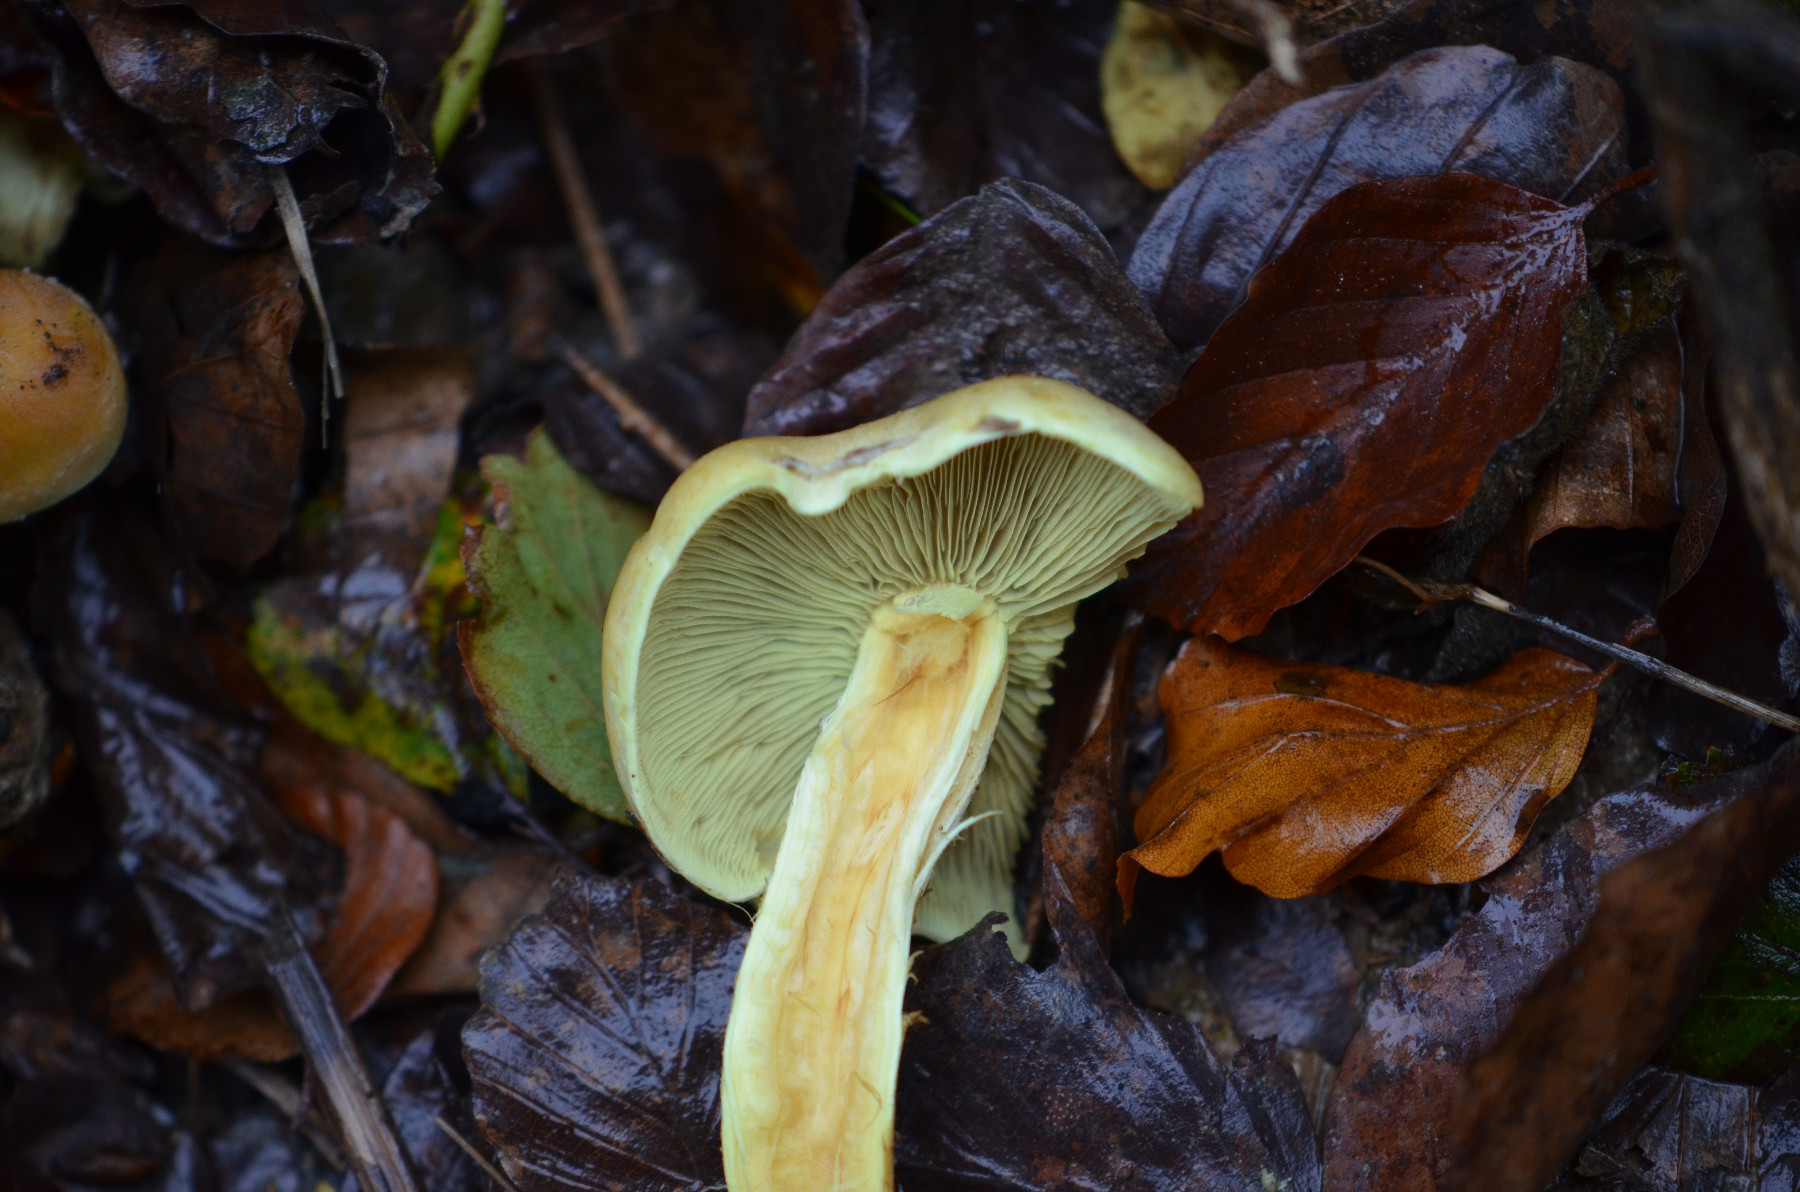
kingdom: Fungi
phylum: Basidiomycota
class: Agaricomycetes
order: Agaricales
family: Strophariaceae
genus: Hypholoma
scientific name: Hypholoma fasciculare
